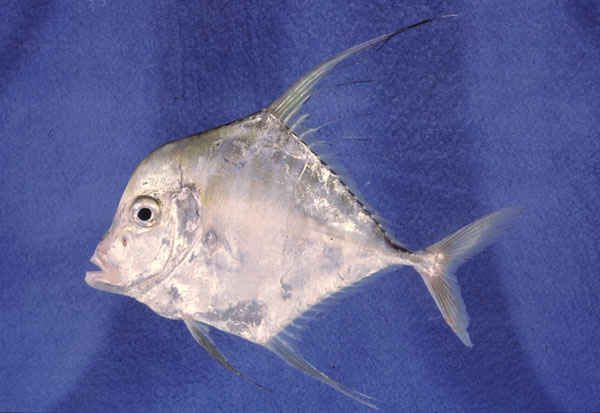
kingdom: Animalia
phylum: Chordata
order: Perciformes
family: Carangidae
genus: Alectis
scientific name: Alectis indica
